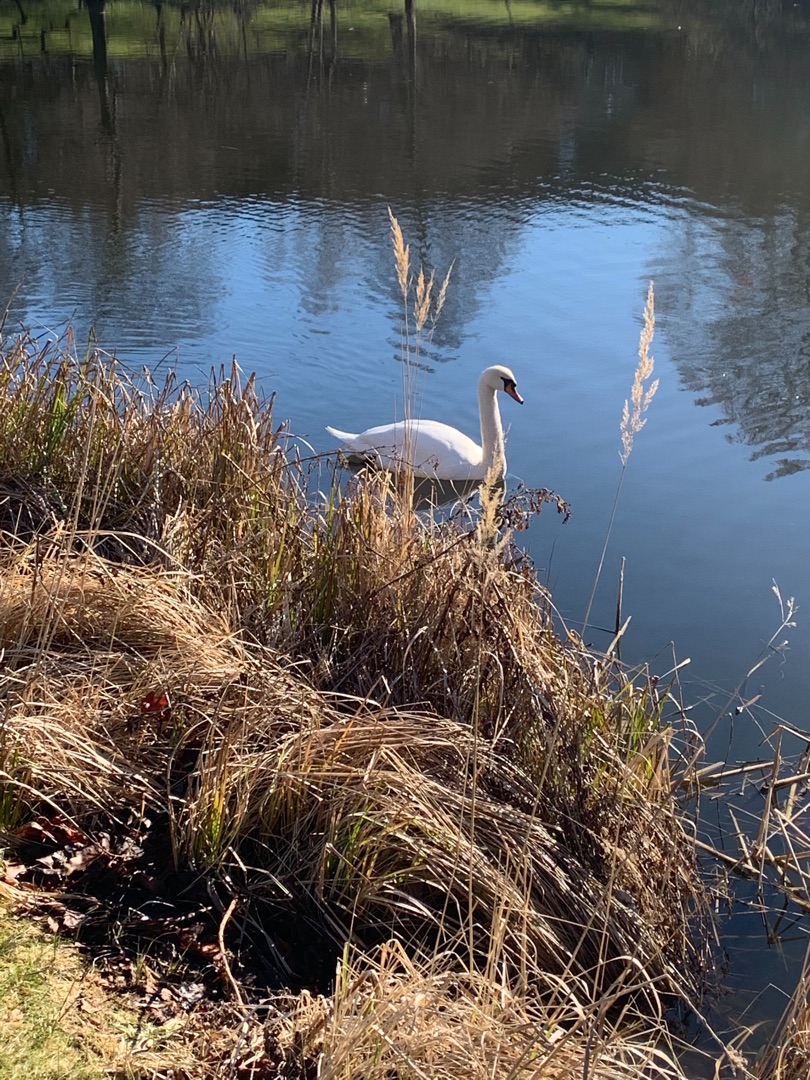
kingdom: Animalia
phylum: Chordata
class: Aves
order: Anseriformes
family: Anatidae
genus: Cygnus
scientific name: Cygnus olor
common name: Knopsvane
